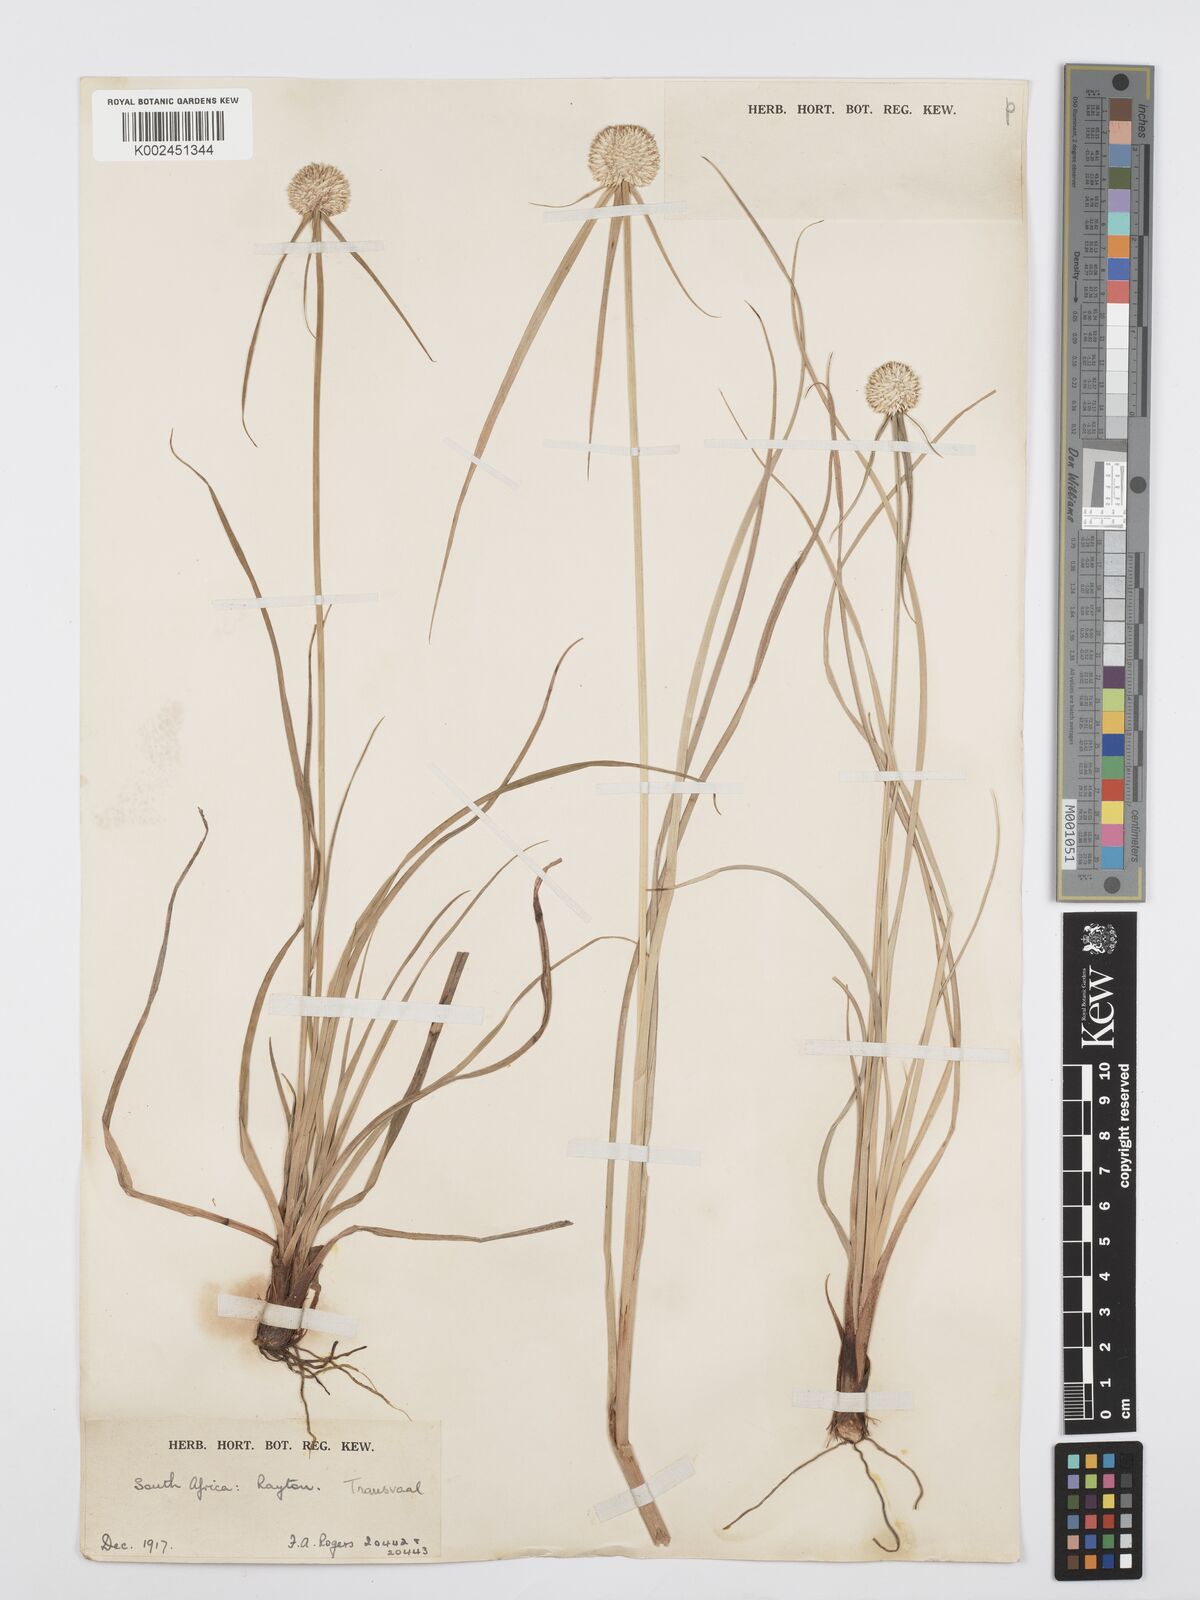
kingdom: Plantae
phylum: Tracheophyta
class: Liliopsida
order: Poales
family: Cyperaceae
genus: Cyperus
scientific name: Cyperus
